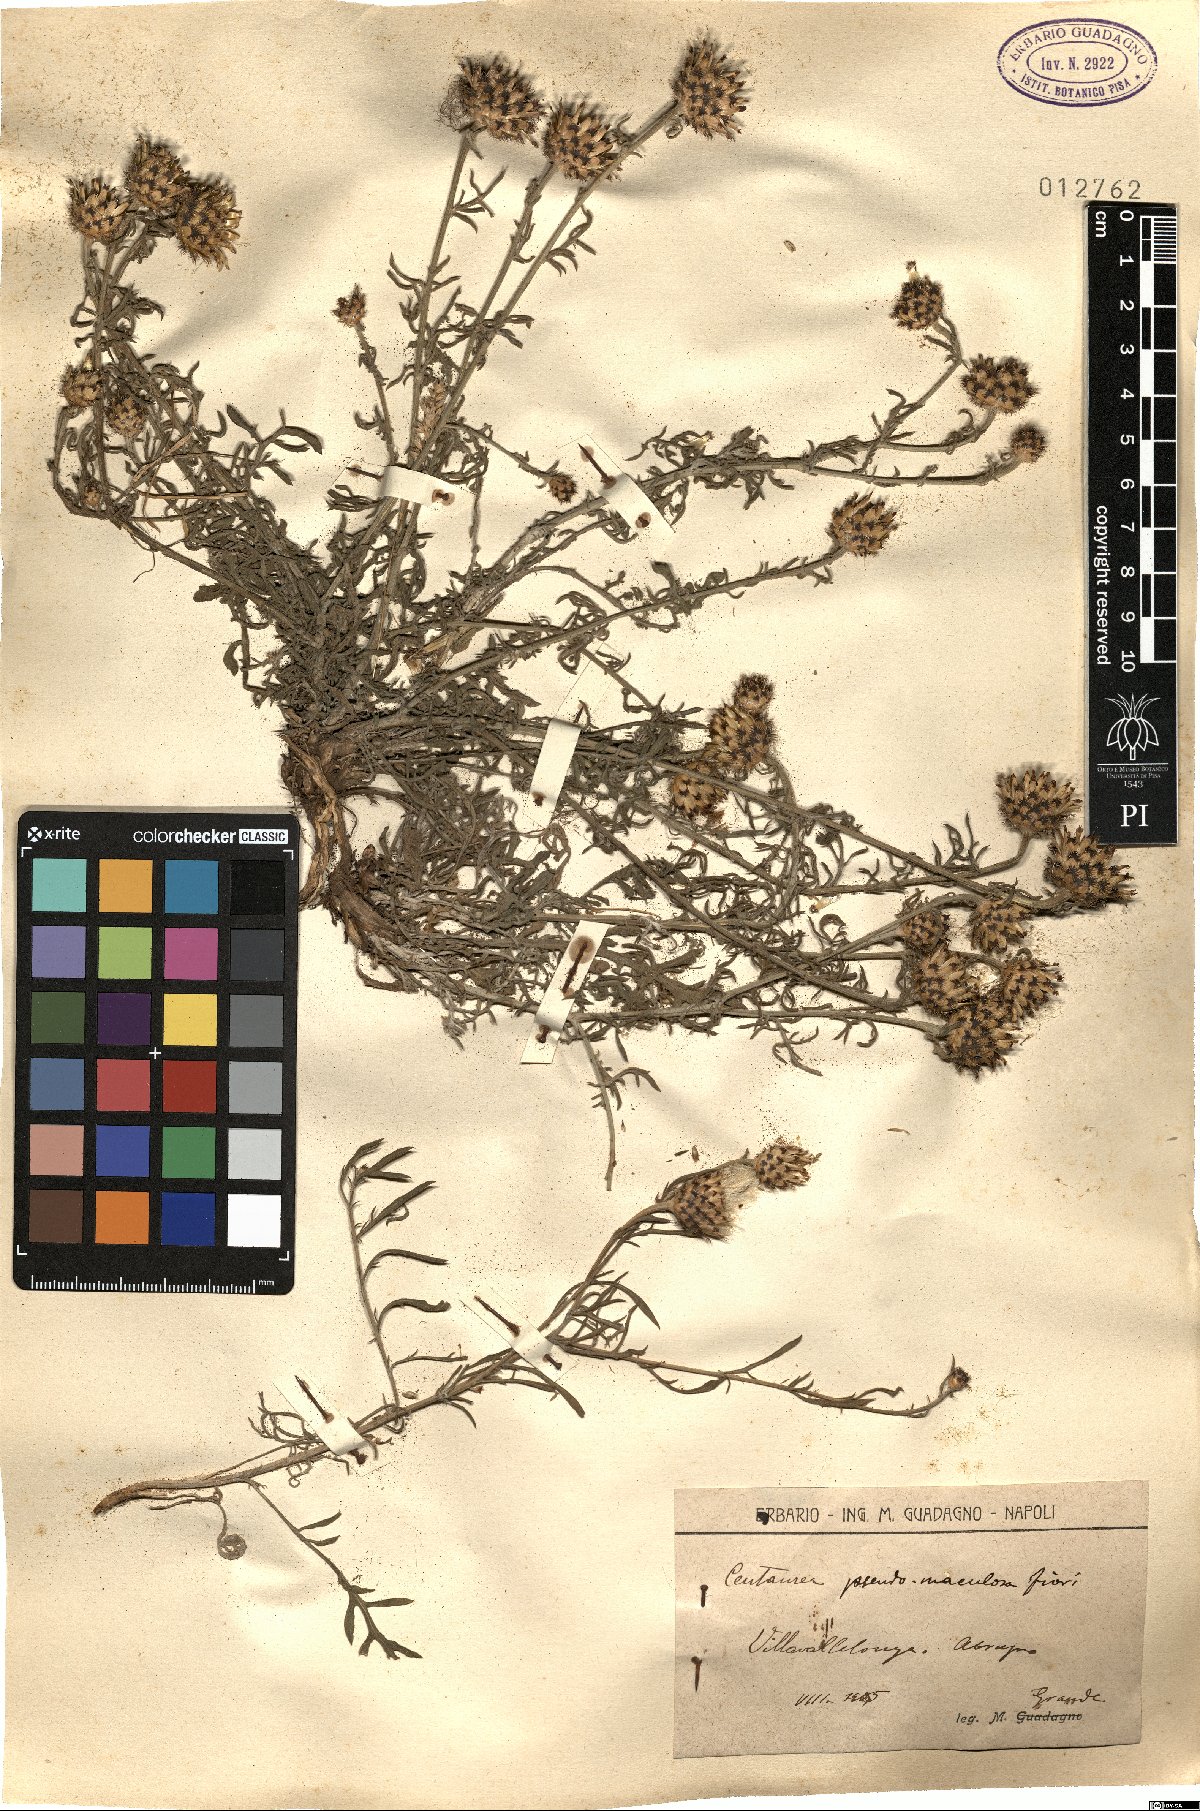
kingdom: Plantae
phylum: Tracheophyta
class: Magnoliopsida
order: Asterales
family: Asteraceae
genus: Centaurea
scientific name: Centaurea pseudomaculosa
